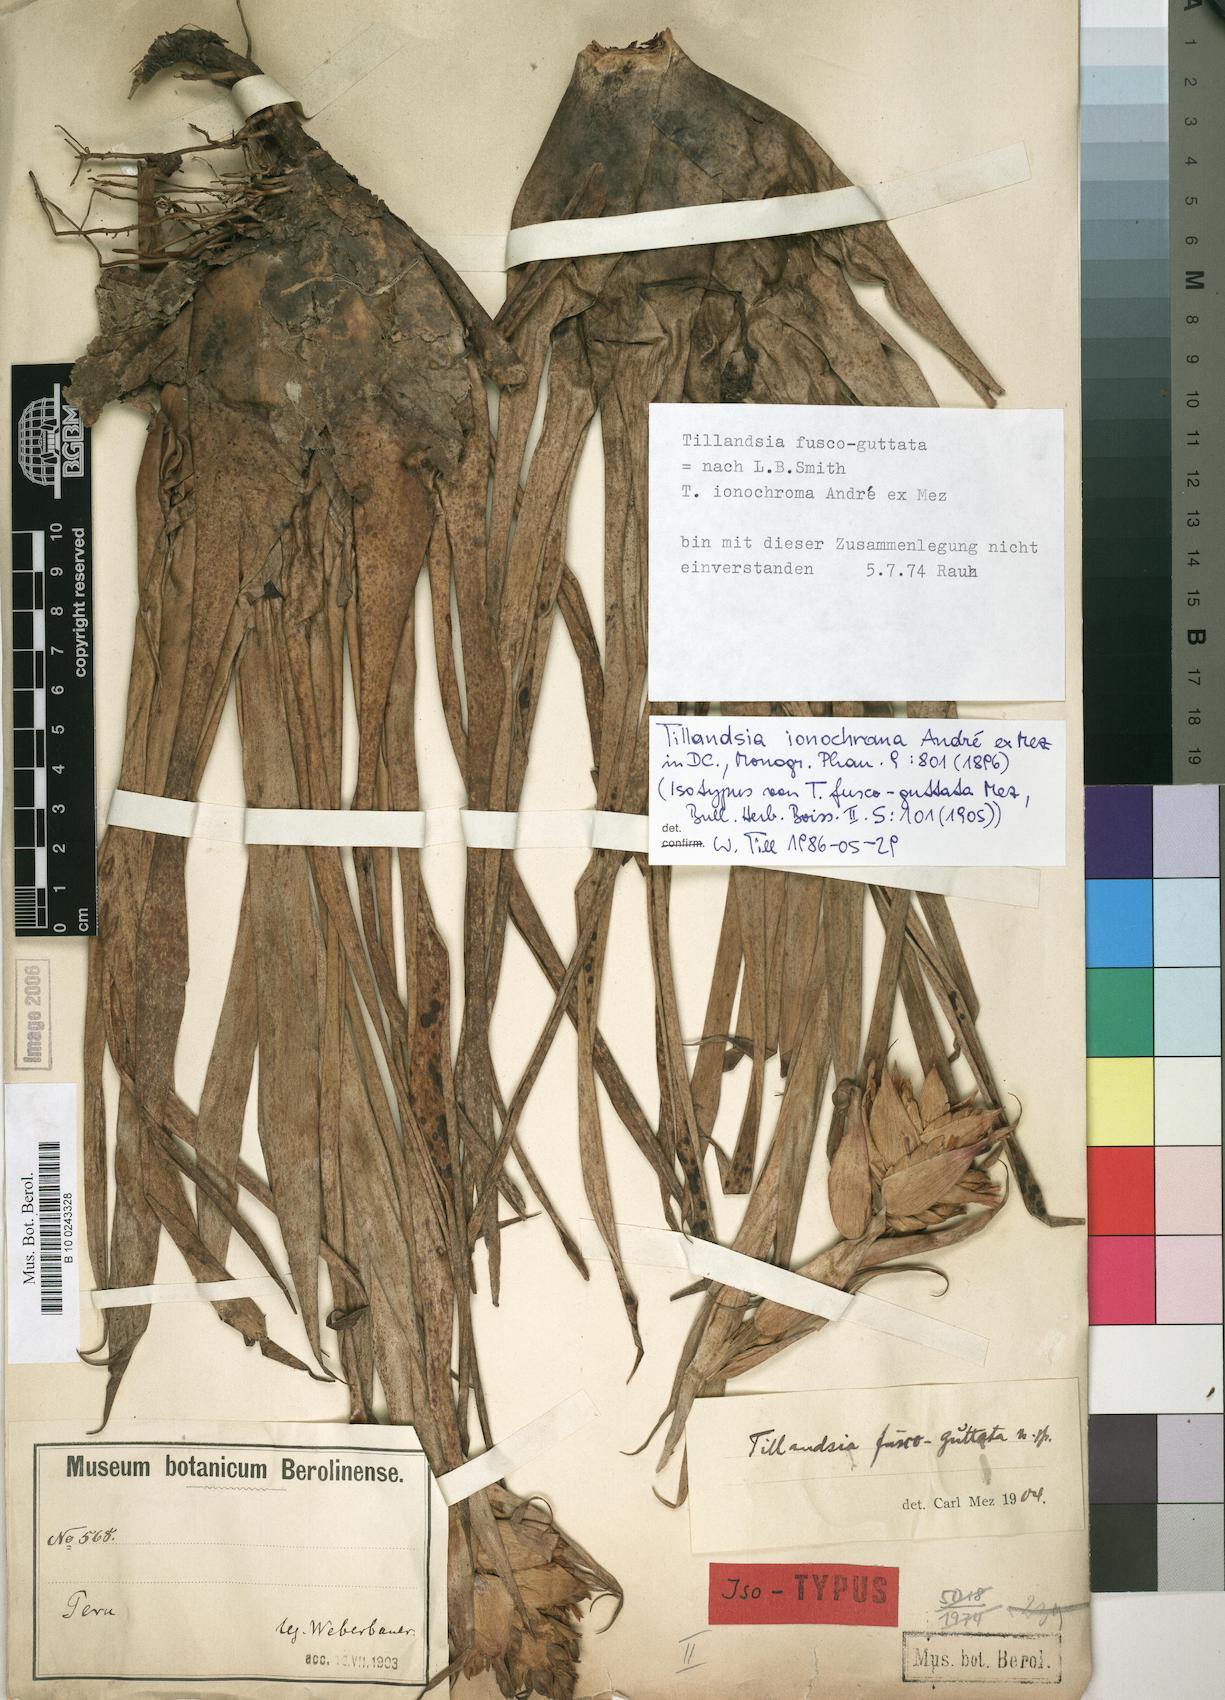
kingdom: Plantae
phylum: Tracheophyta
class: Liliopsida
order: Poales
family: Bromeliaceae
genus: Tillandsia
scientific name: Tillandsia ionochroma
